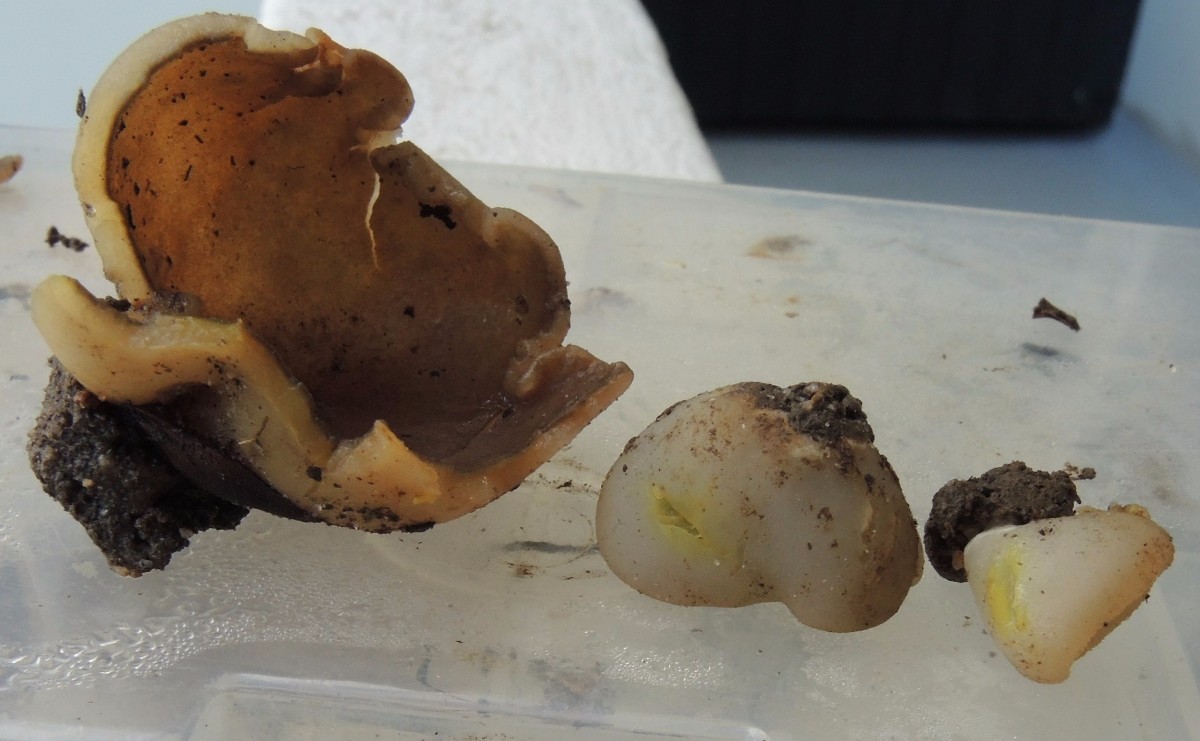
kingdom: Fungi
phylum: Ascomycota
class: Pezizomycetes
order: Pezizales
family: Pezizaceae
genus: Paragalactinia
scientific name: Paragalactinia succosa
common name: gulmælket bægersvamp
